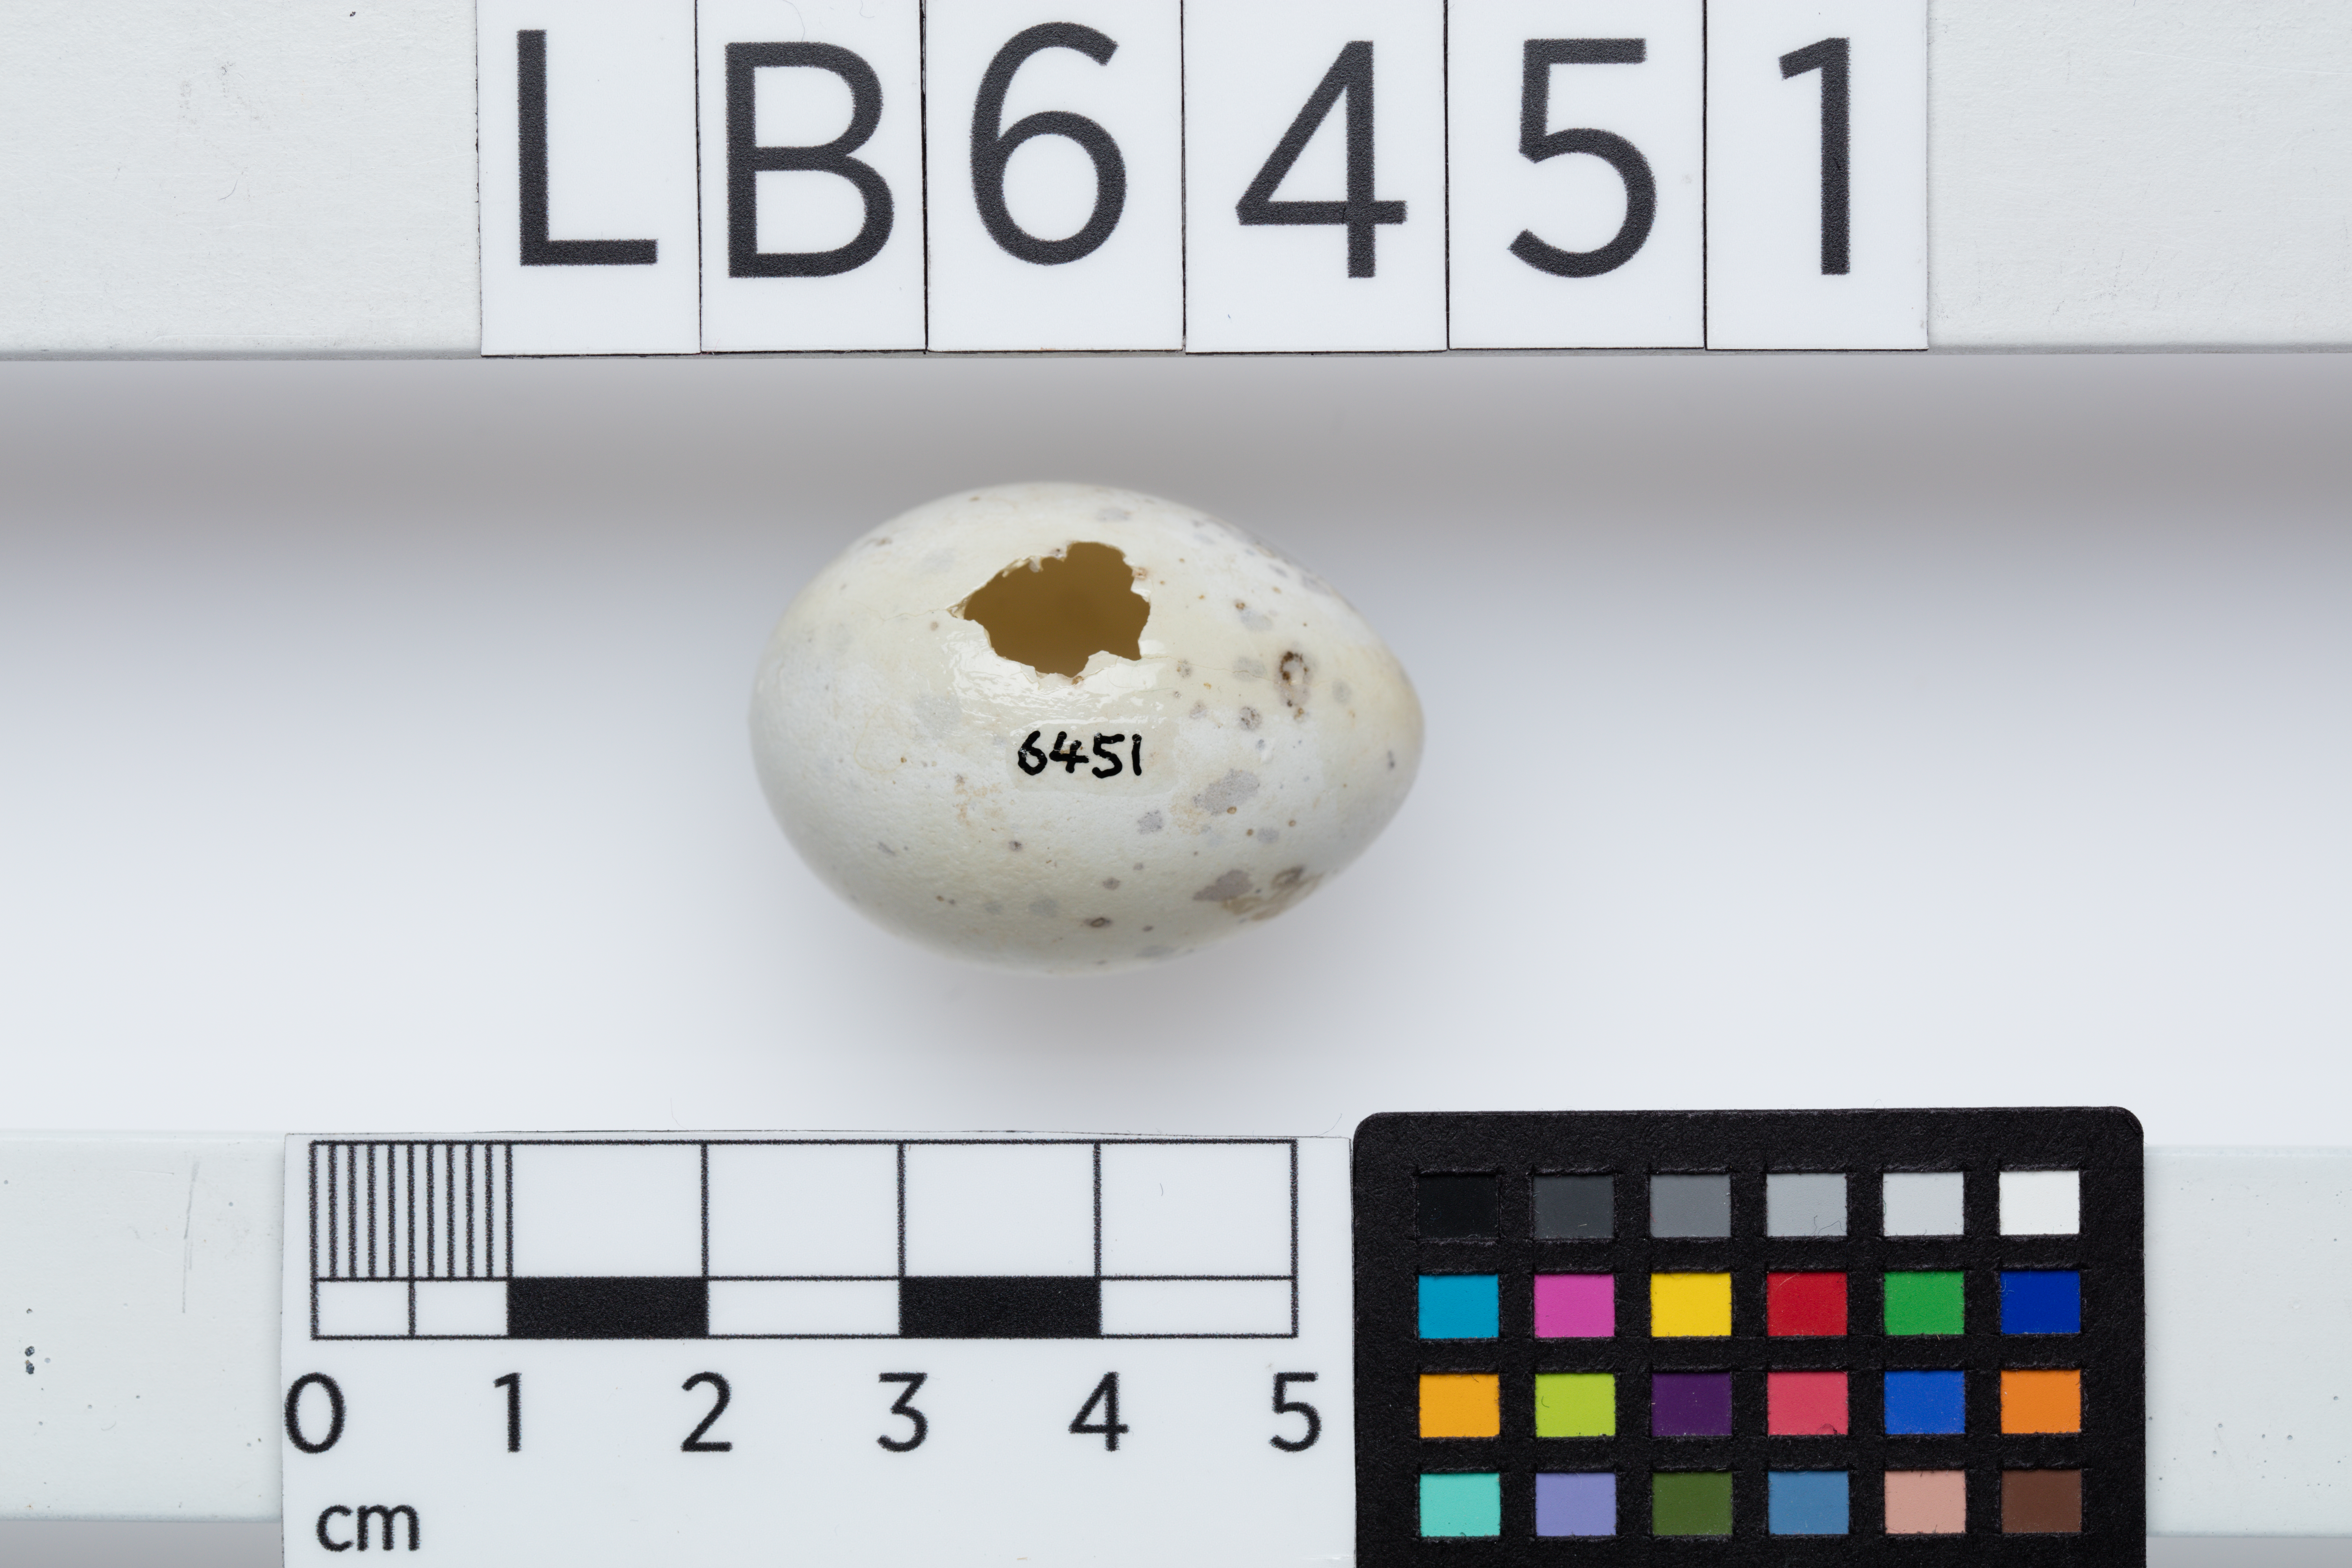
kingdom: Animalia
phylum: Chordata
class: Aves
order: Passeriformes
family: Callaeatidae
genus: Callaeas
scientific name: Callaeas cinereus
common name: South island kokako
